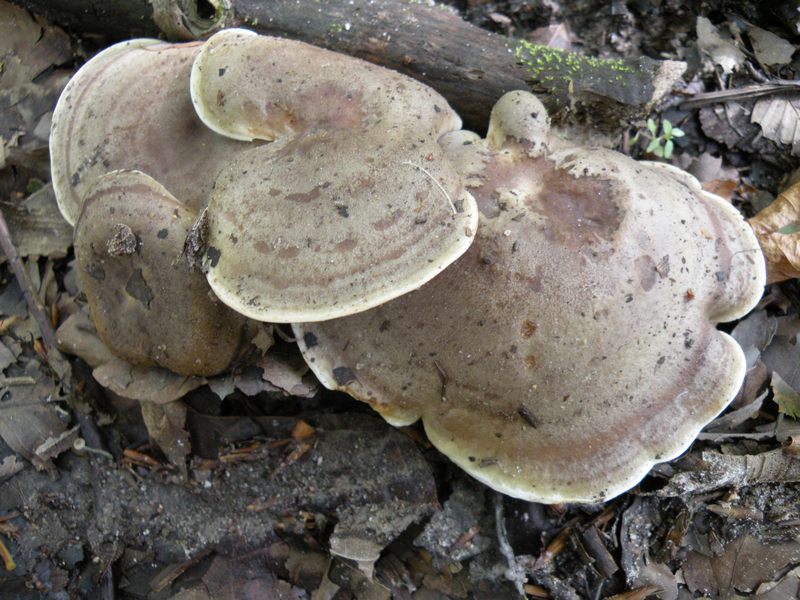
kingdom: Fungi
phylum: Basidiomycota
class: Agaricomycetes
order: Russulales
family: Russulaceae
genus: Lactarius
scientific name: Lactarius fluens
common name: lysrandet mælkehat
